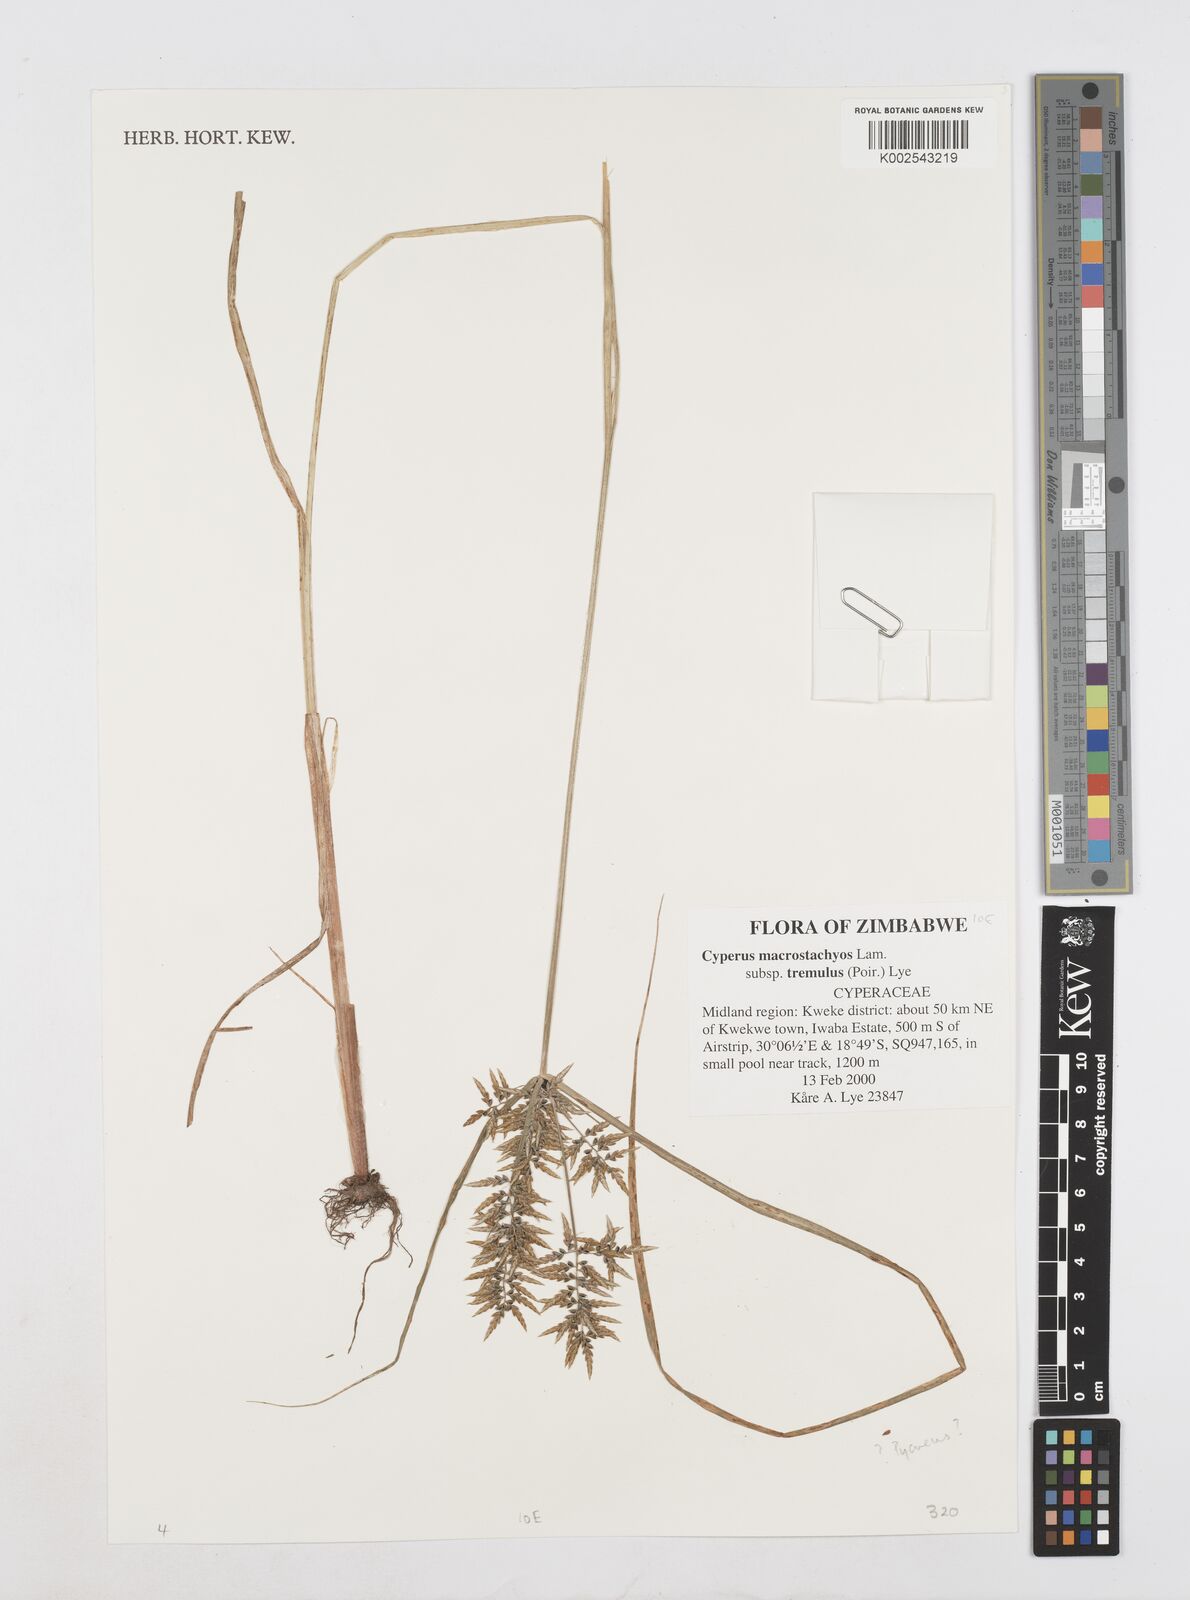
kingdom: Plantae
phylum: Tracheophyta
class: Liliopsida
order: Poales
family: Cyperaceae
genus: Cyperus
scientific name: Cyperus macrostachyos
